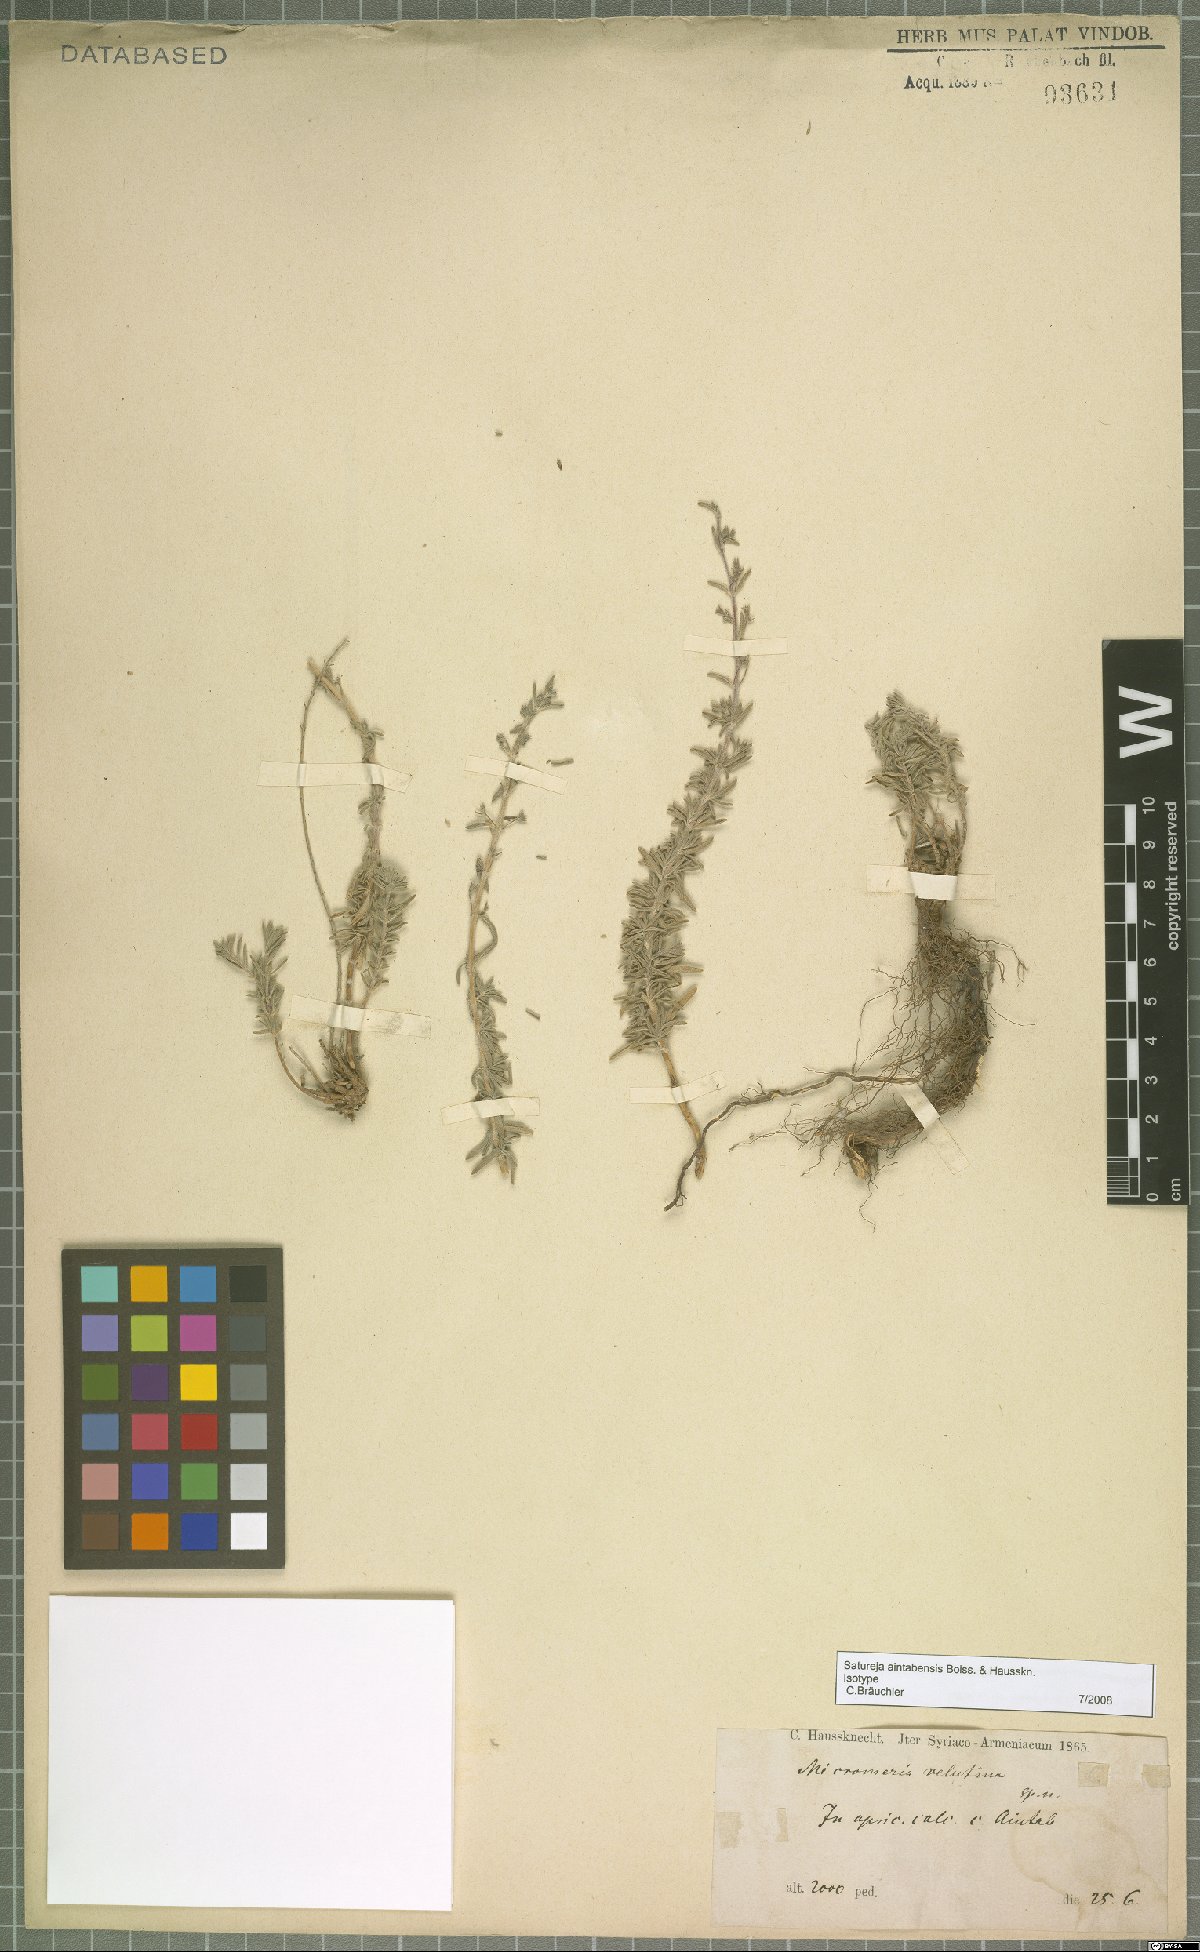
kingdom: Plantae
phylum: Tracheophyta
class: Magnoliopsida
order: Lamiales
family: Lamiaceae
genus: Satureja
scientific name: Satureja aintabensis
